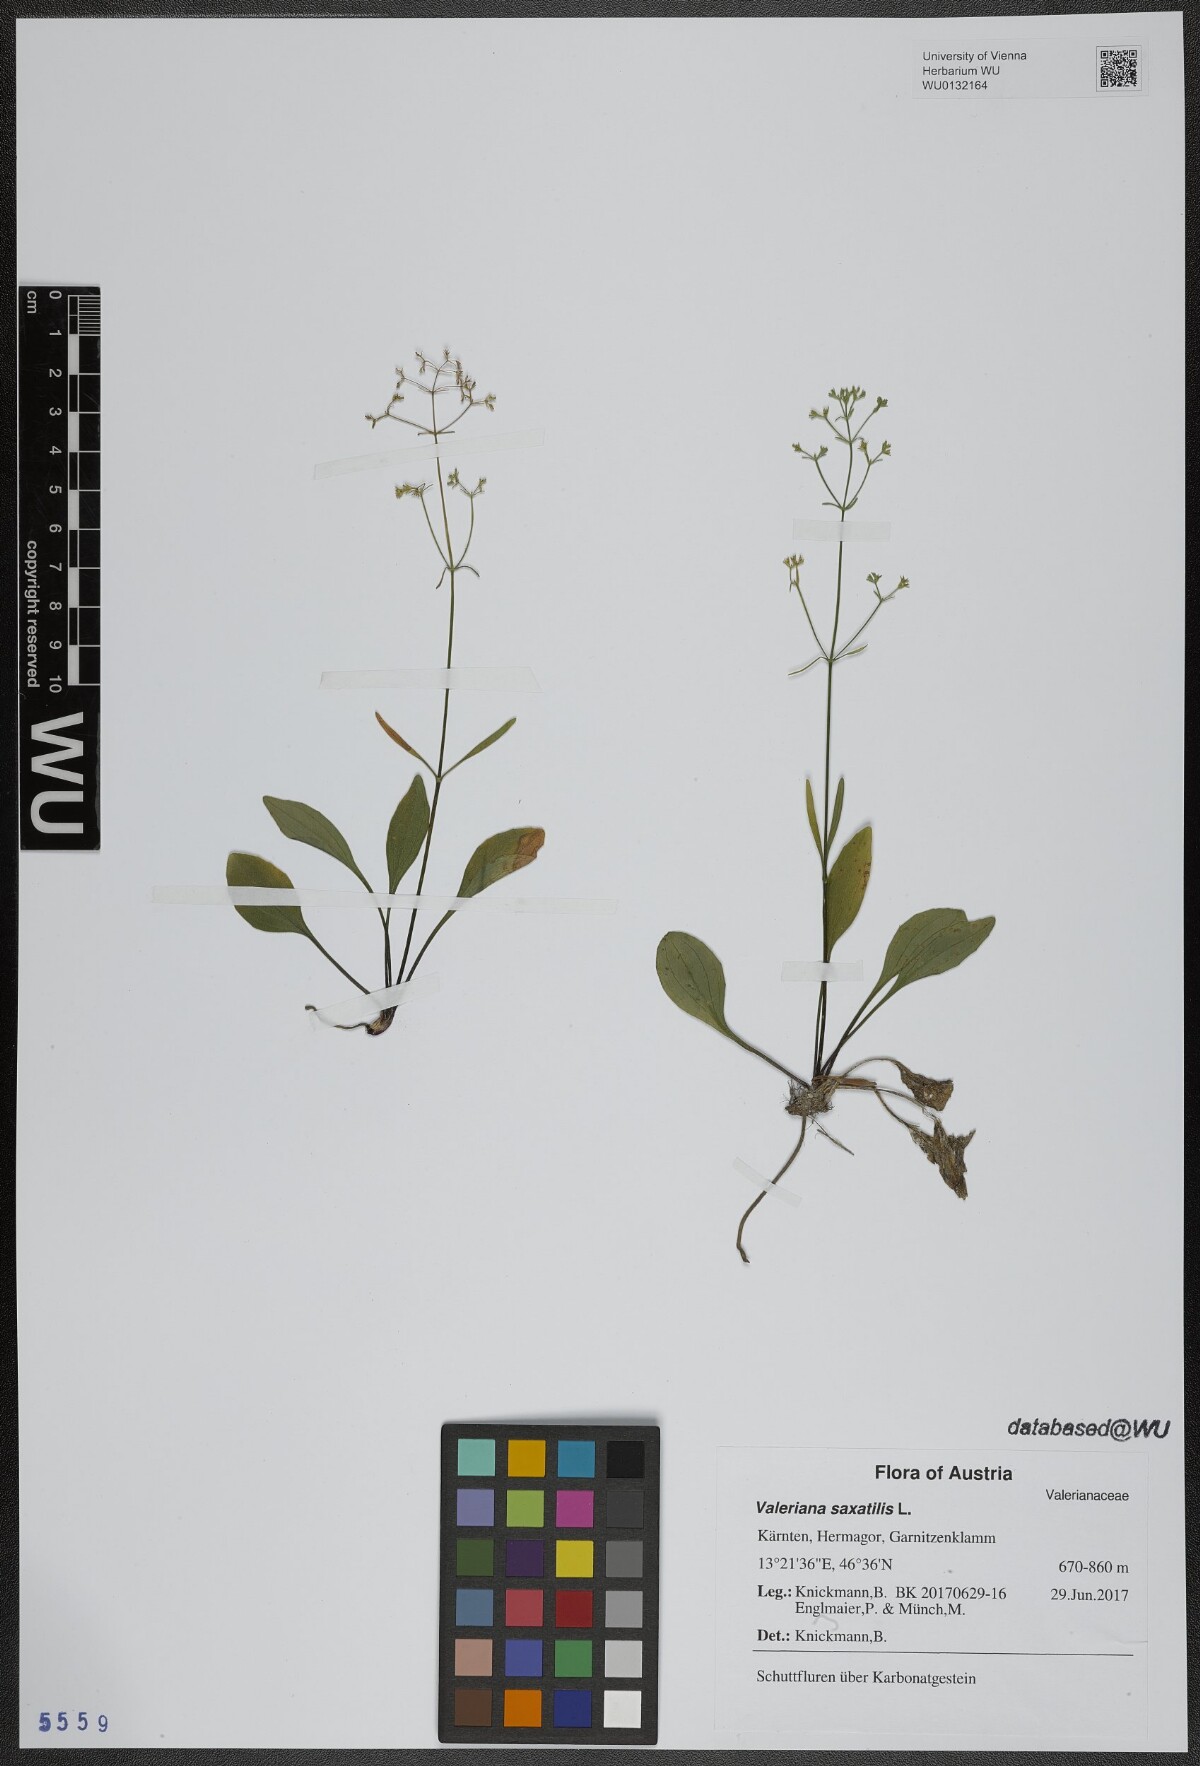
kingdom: Plantae
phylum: Tracheophyta
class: Magnoliopsida
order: Dipsacales
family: Caprifoliaceae
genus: Valeriana
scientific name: Valeriana saxatilis
